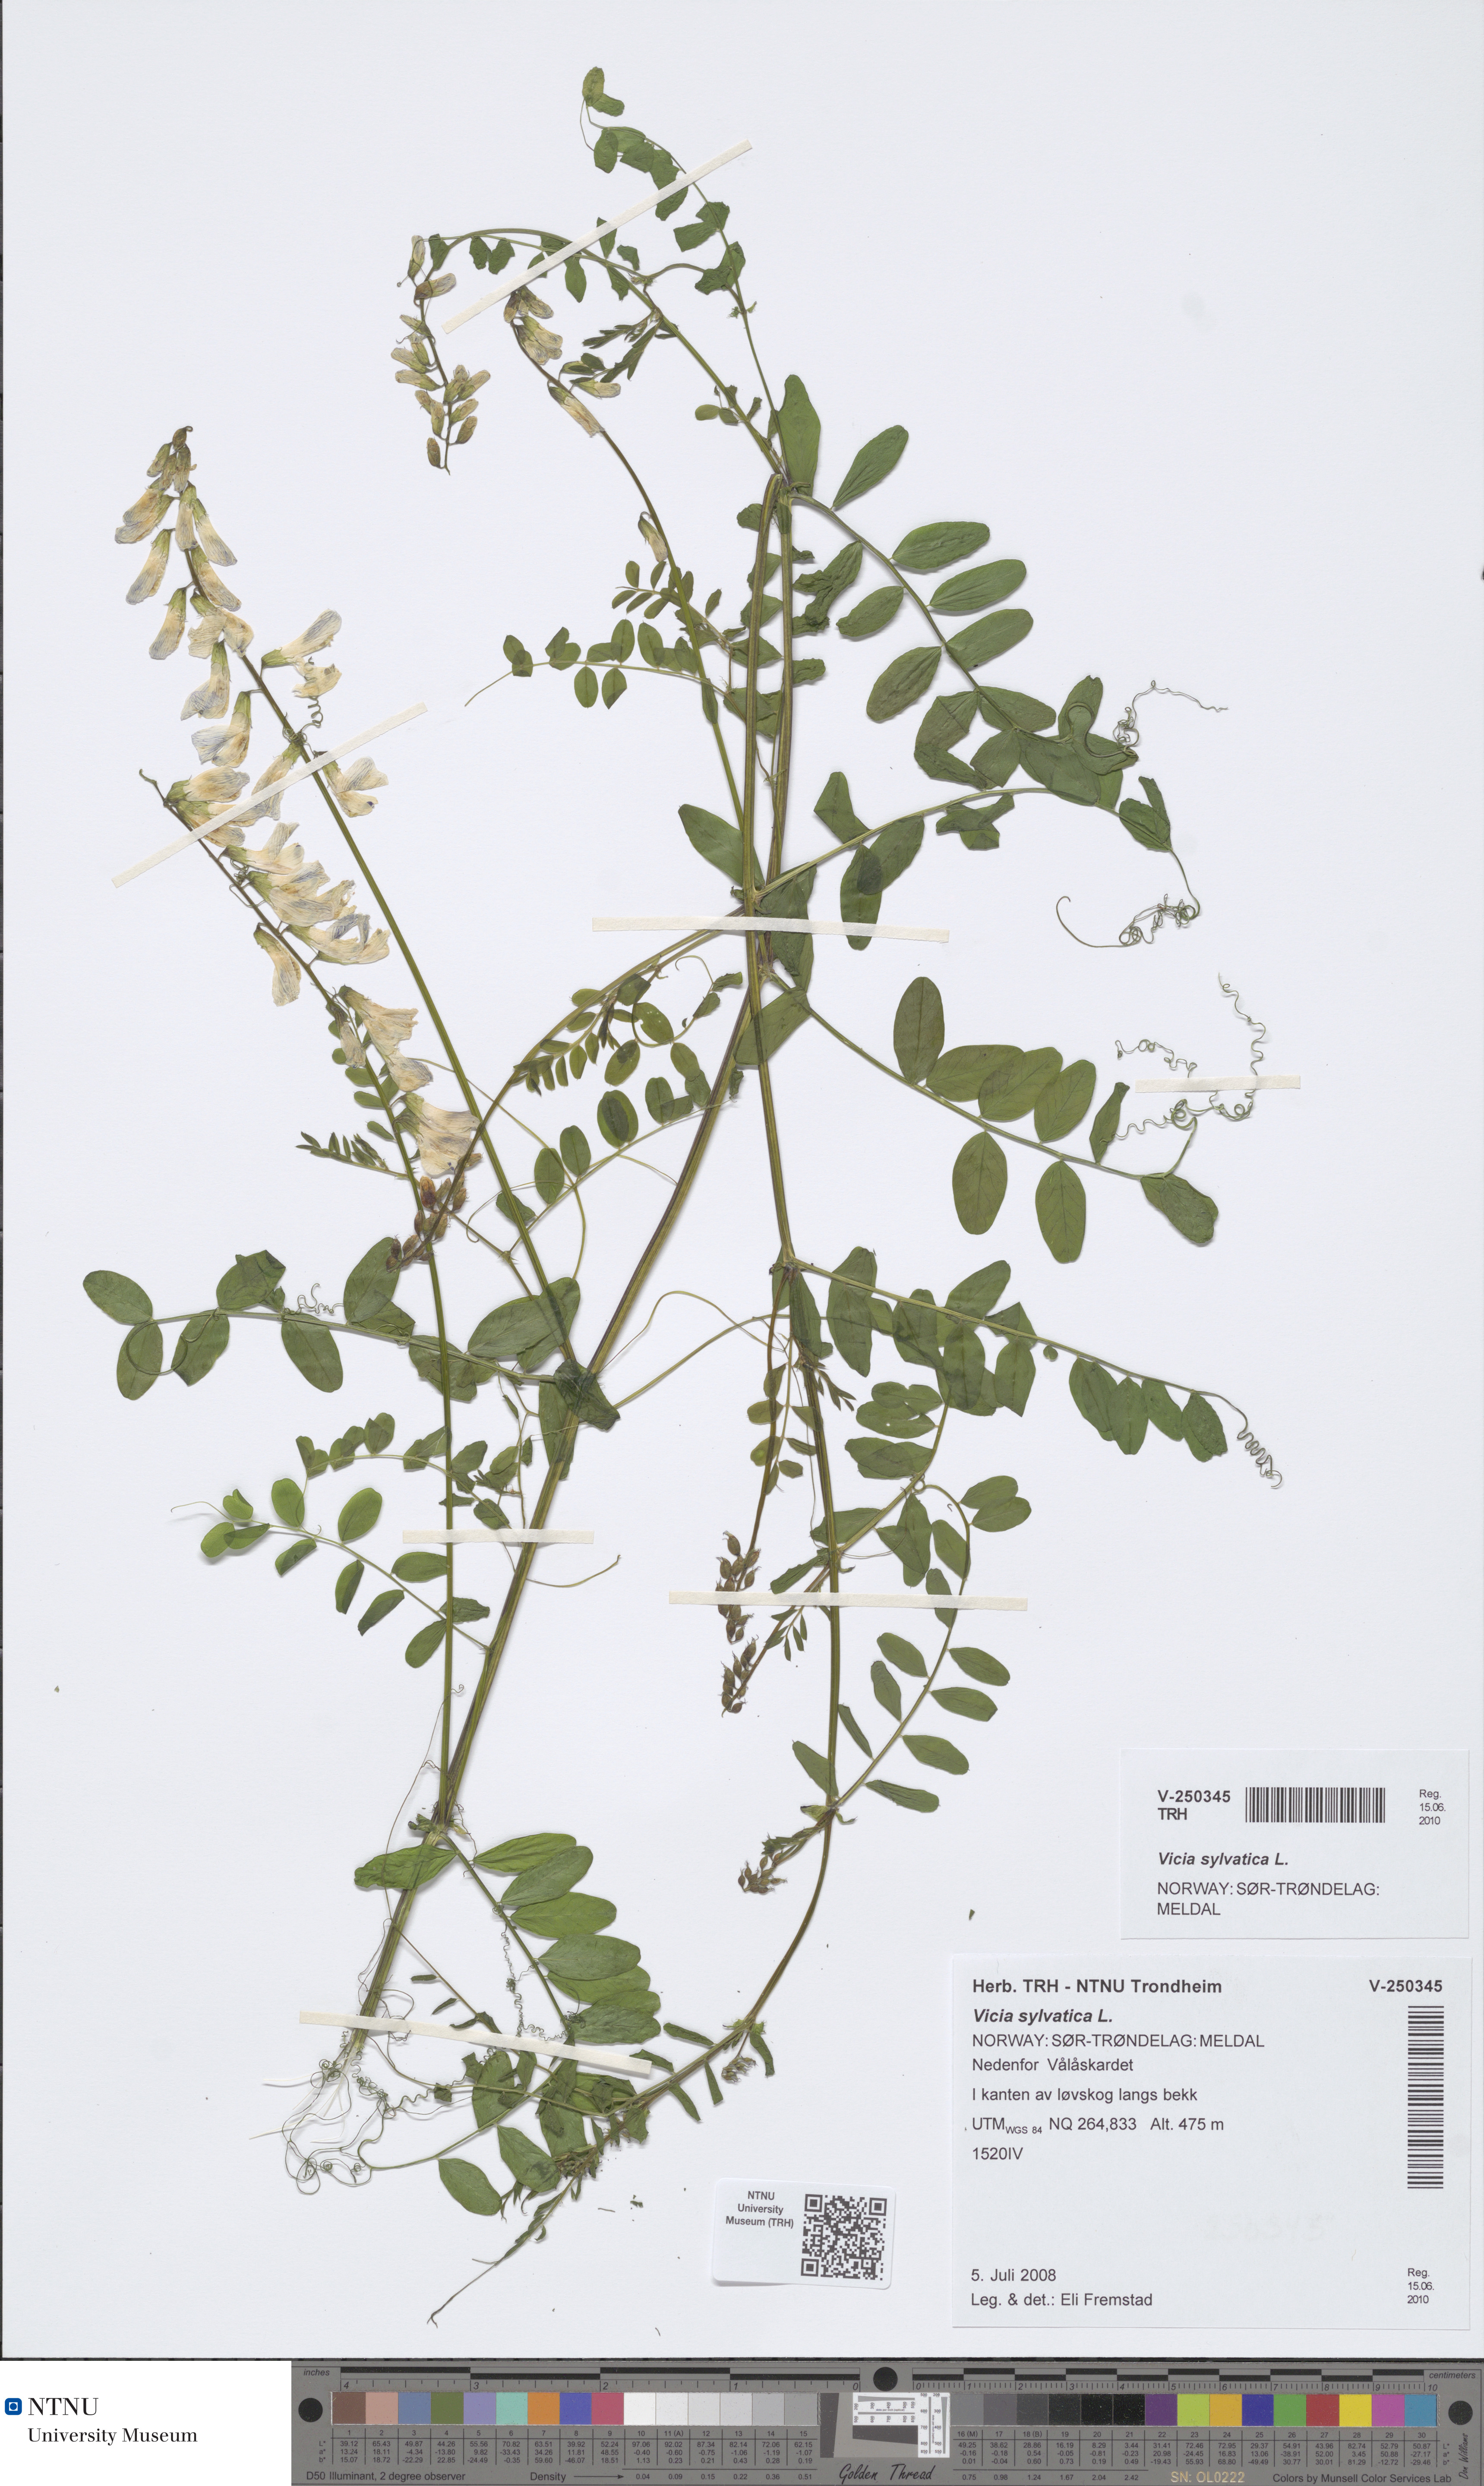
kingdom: Plantae
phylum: Tracheophyta
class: Magnoliopsida
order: Fabales
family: Fabaceae
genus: Vicia
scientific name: Vicia sylvatica
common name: Wood vetch
